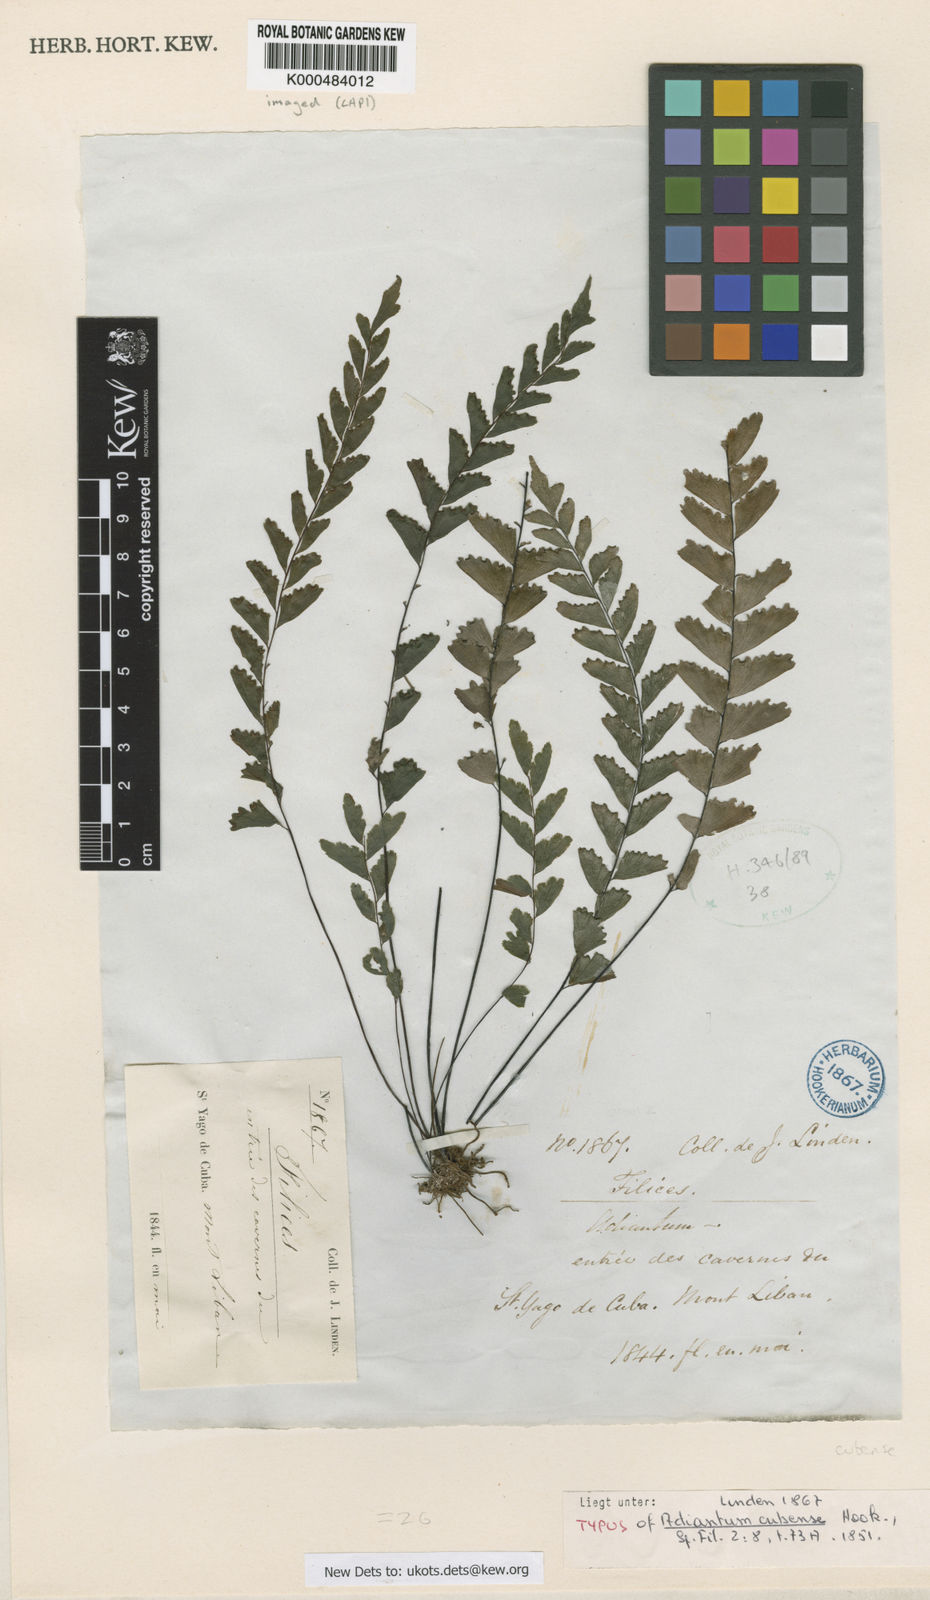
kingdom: Plantae
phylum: Tracheophyta
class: Polypodiopsida
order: Polypodiales
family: Pteridaceae
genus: Adiantum
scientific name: Adiantum melanoleucum
